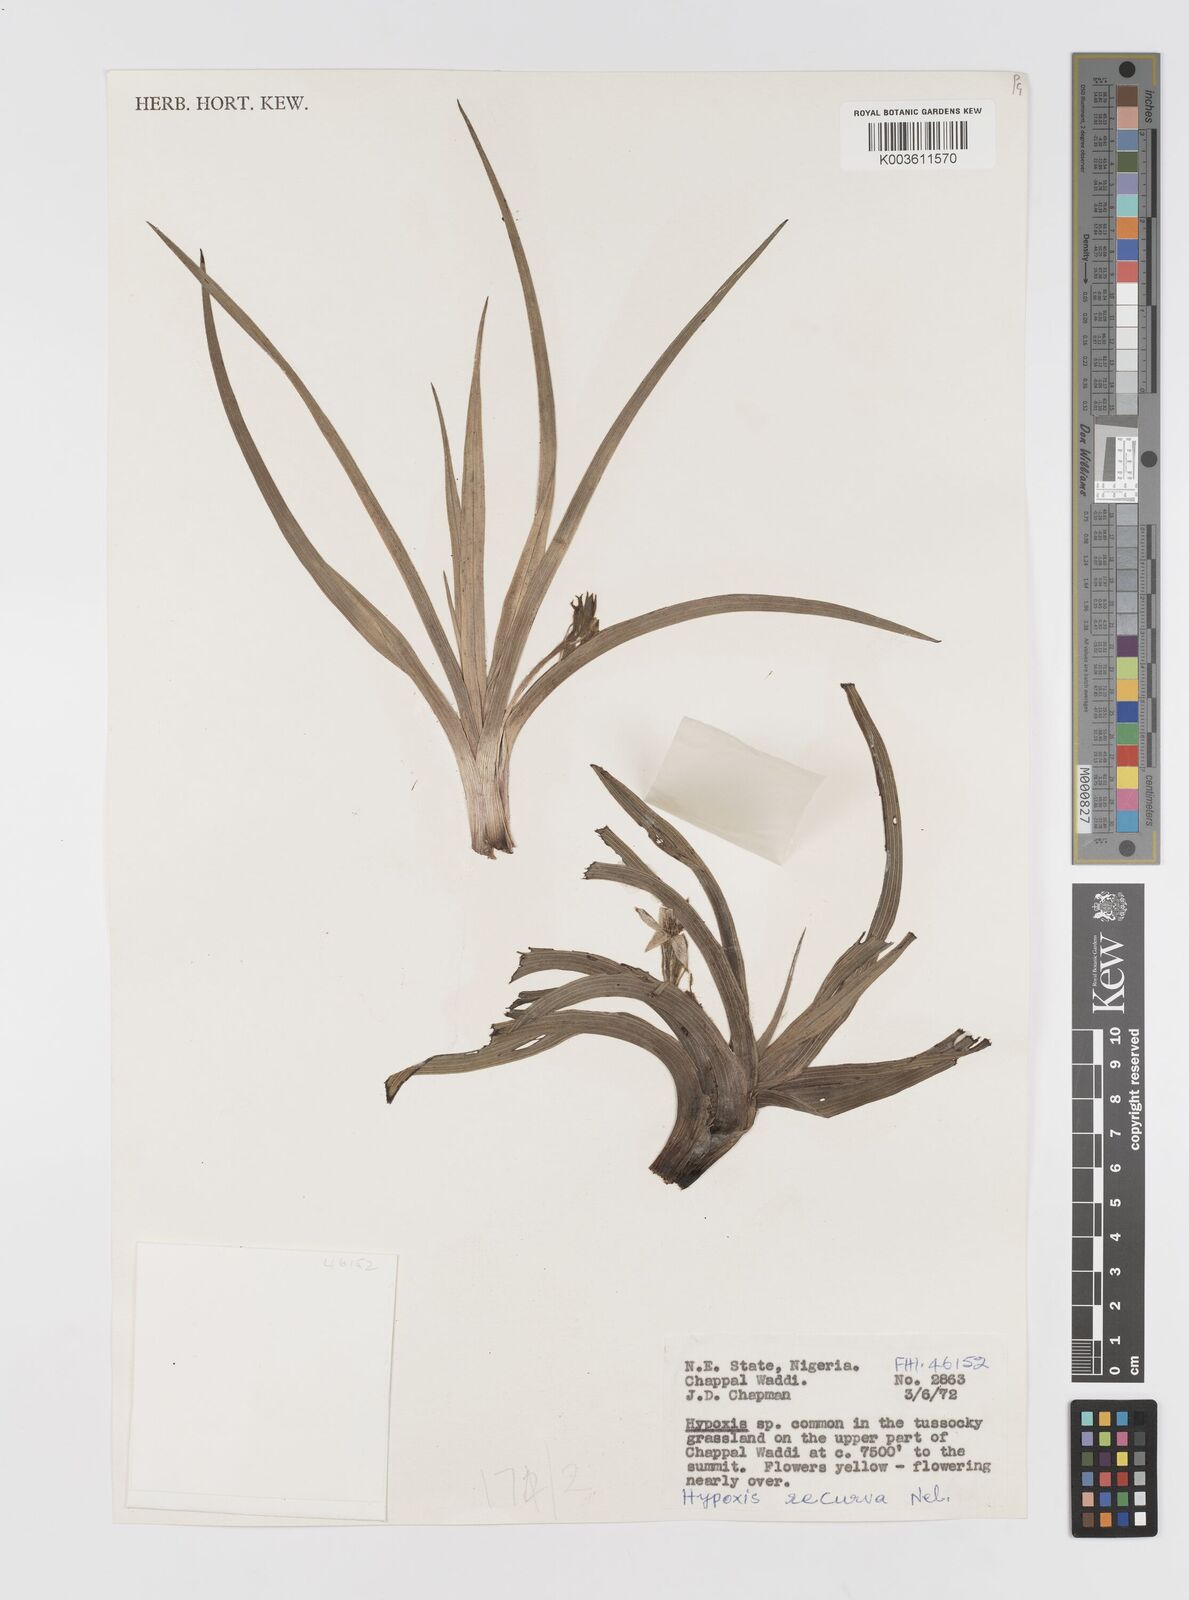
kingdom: Plantae
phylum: Tracheophyta
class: Liliopsida
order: Asparagales
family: Hypoxidaceae
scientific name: Hypoxidaceae
